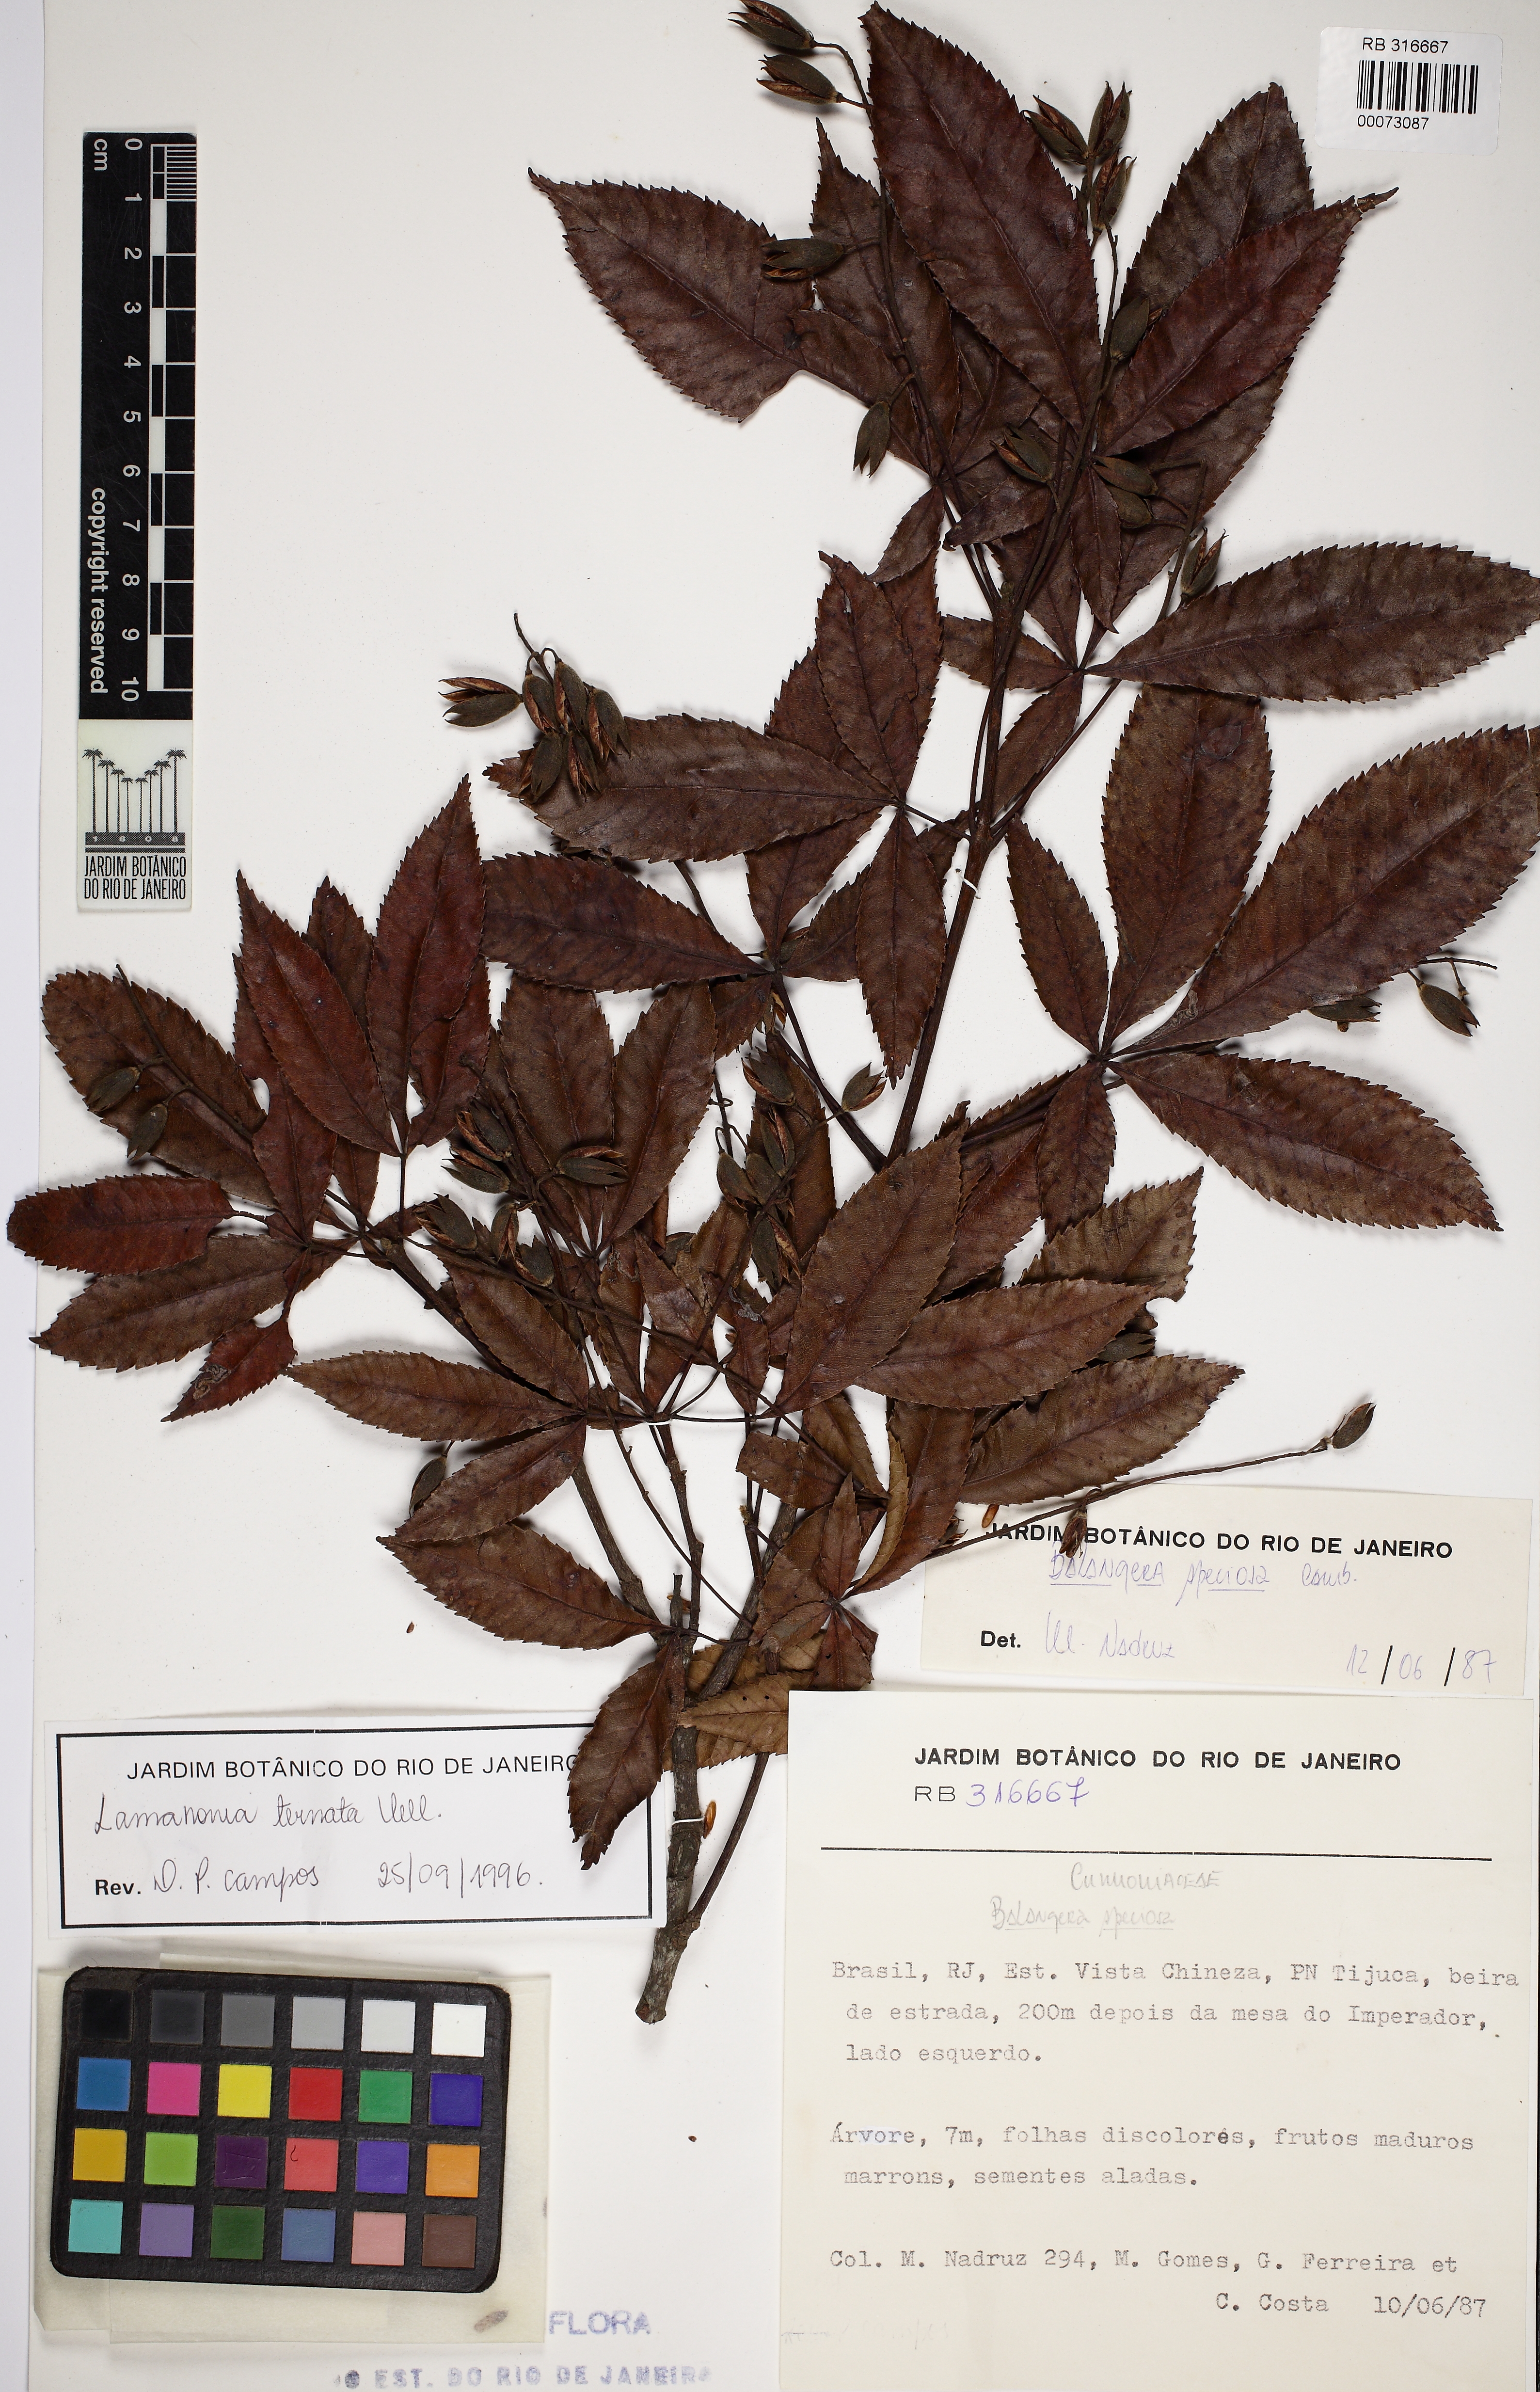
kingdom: Plantae
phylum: Tracheophyta
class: Magnoliopsida
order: Oxalidales
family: Cunoniaceae
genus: Lamanonia
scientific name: Lamanonia ternata
